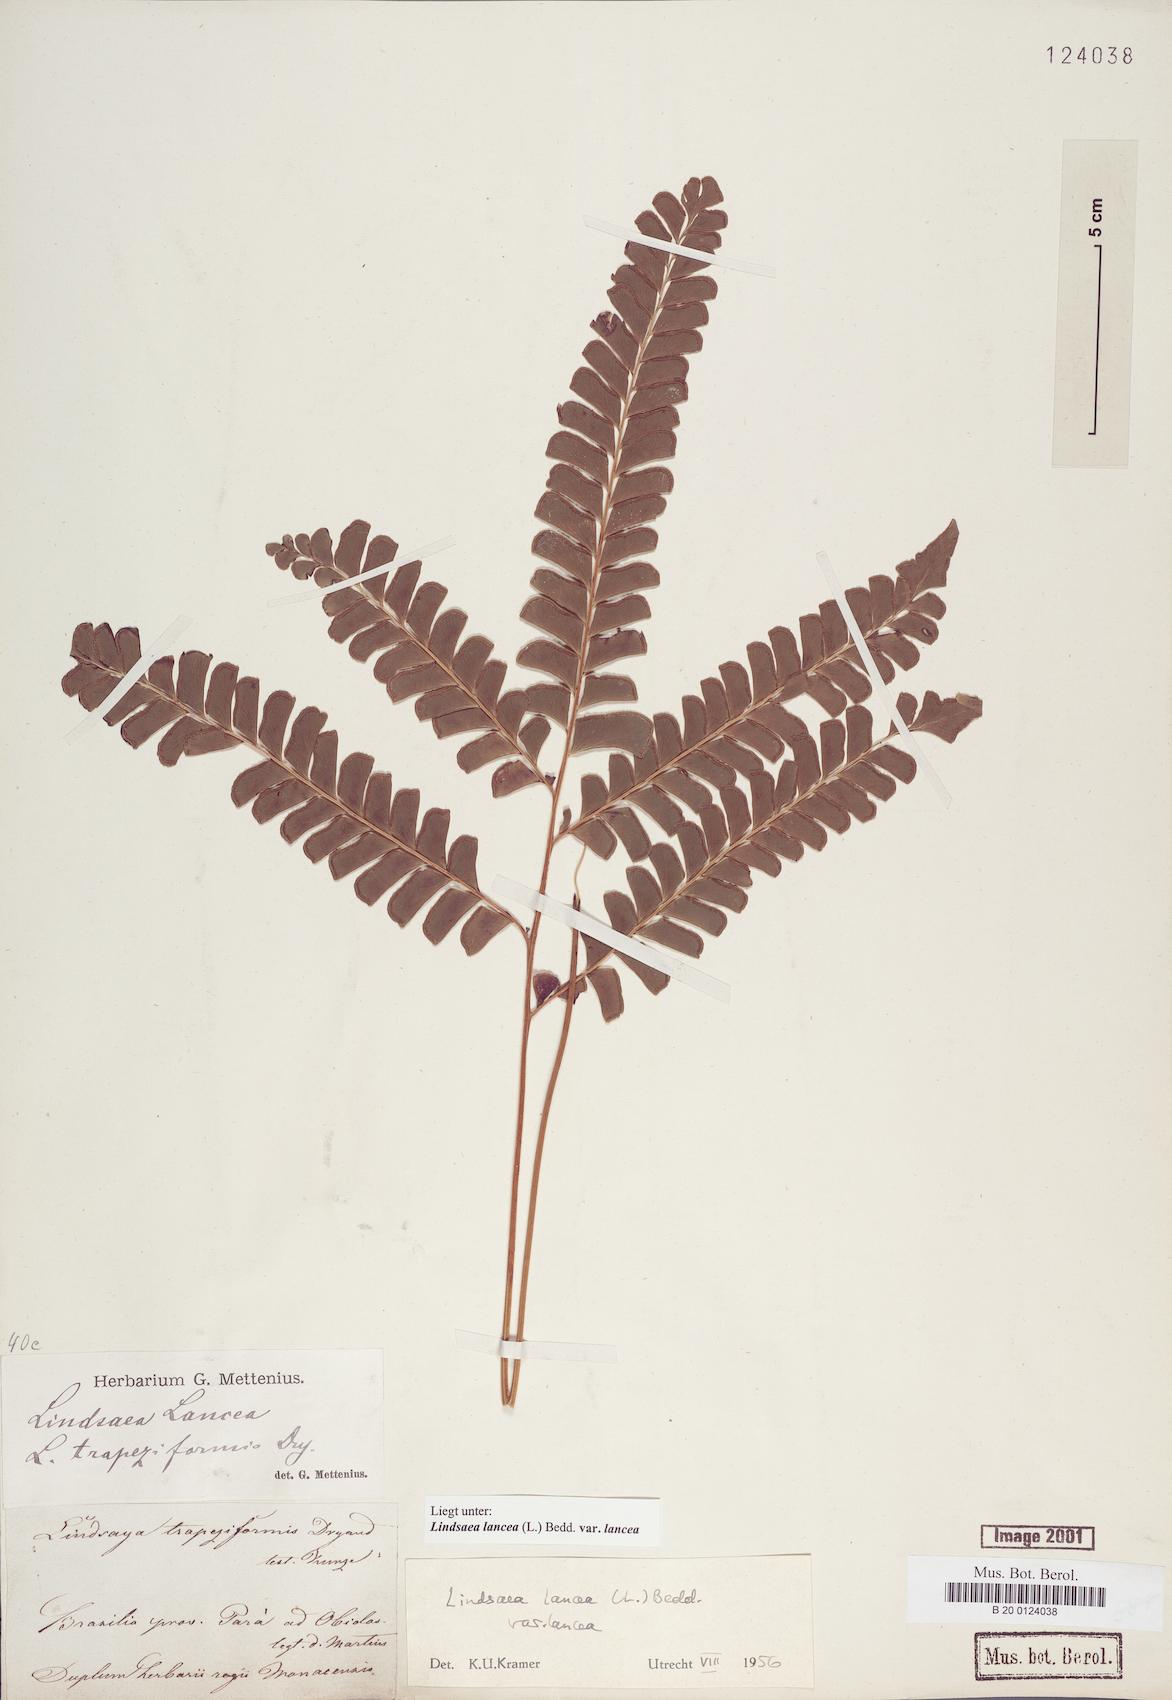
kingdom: Plantae
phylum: Tracheophyta
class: Polypodiopsida
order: Polypodiales
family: Lindsaeaceae
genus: Lindsaea
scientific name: Lindsaea lancea
